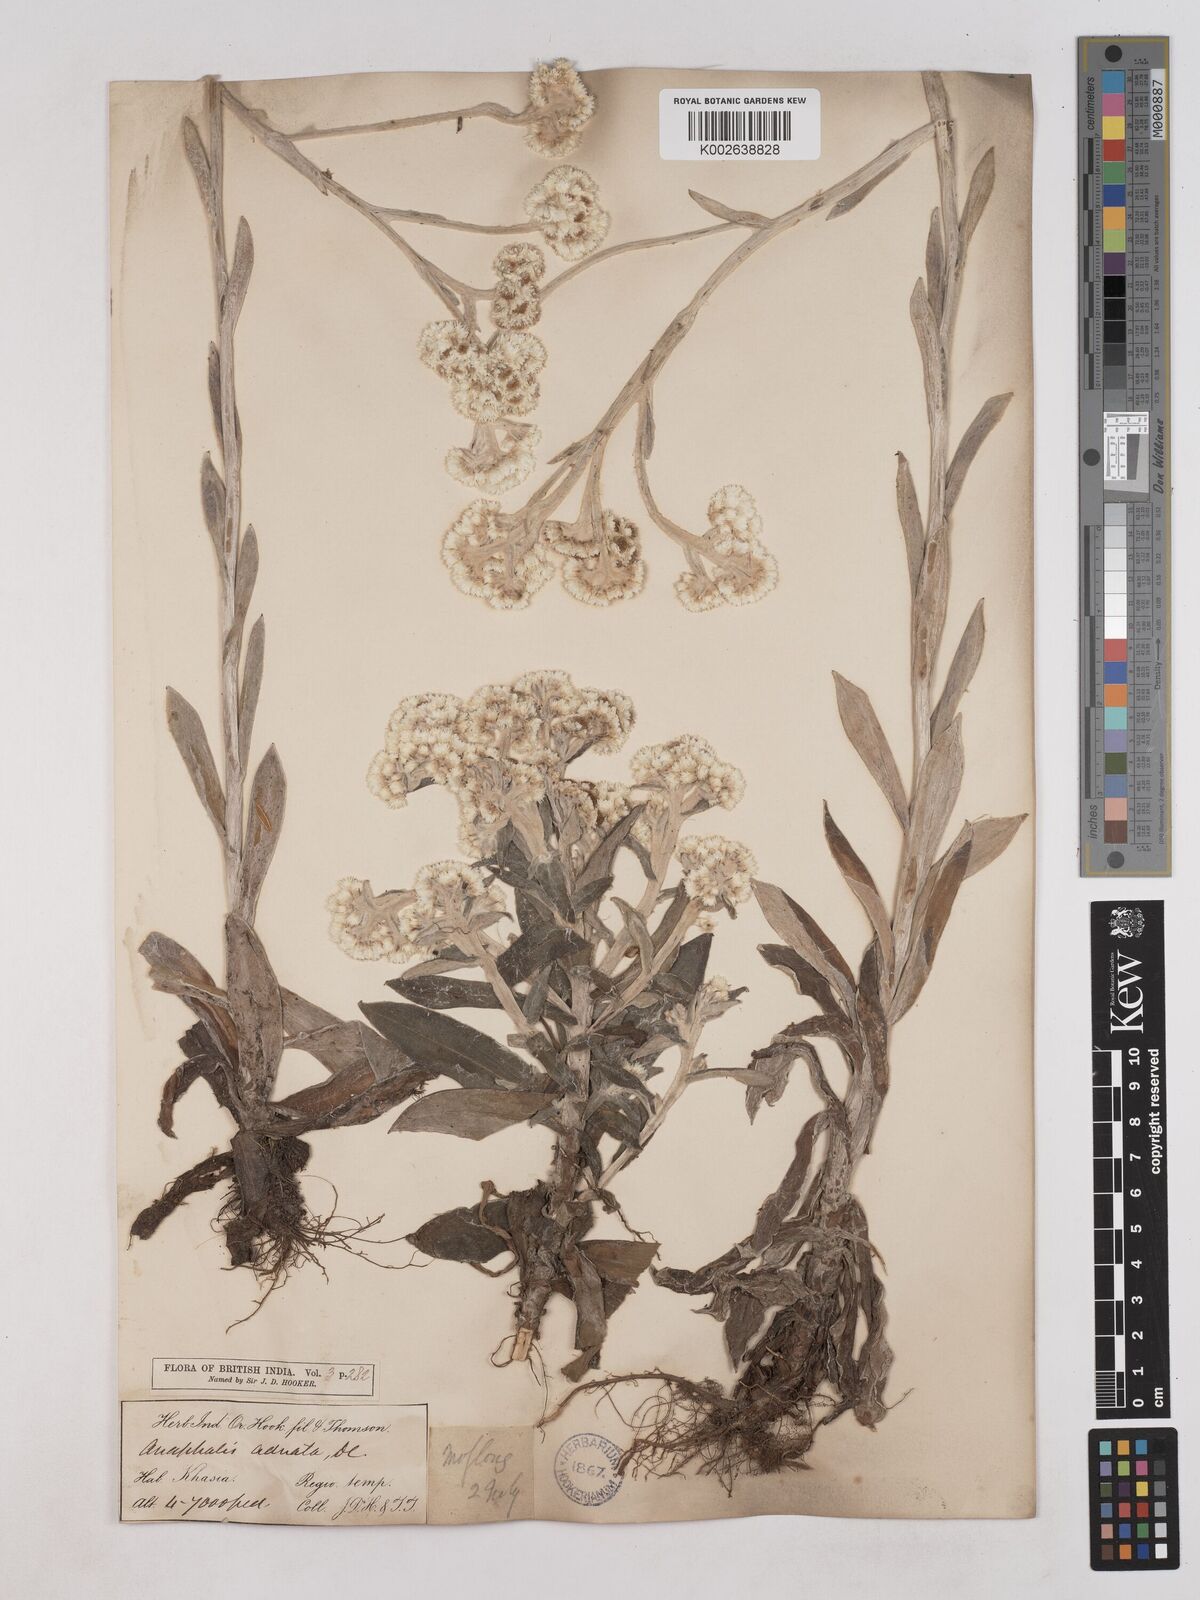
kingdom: Plantae
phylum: Tracheophyta
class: Magnoliopsida
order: Asterales
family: Asteraceae
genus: Pseudognaphalium
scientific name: Pseudognaphalium adnatum
